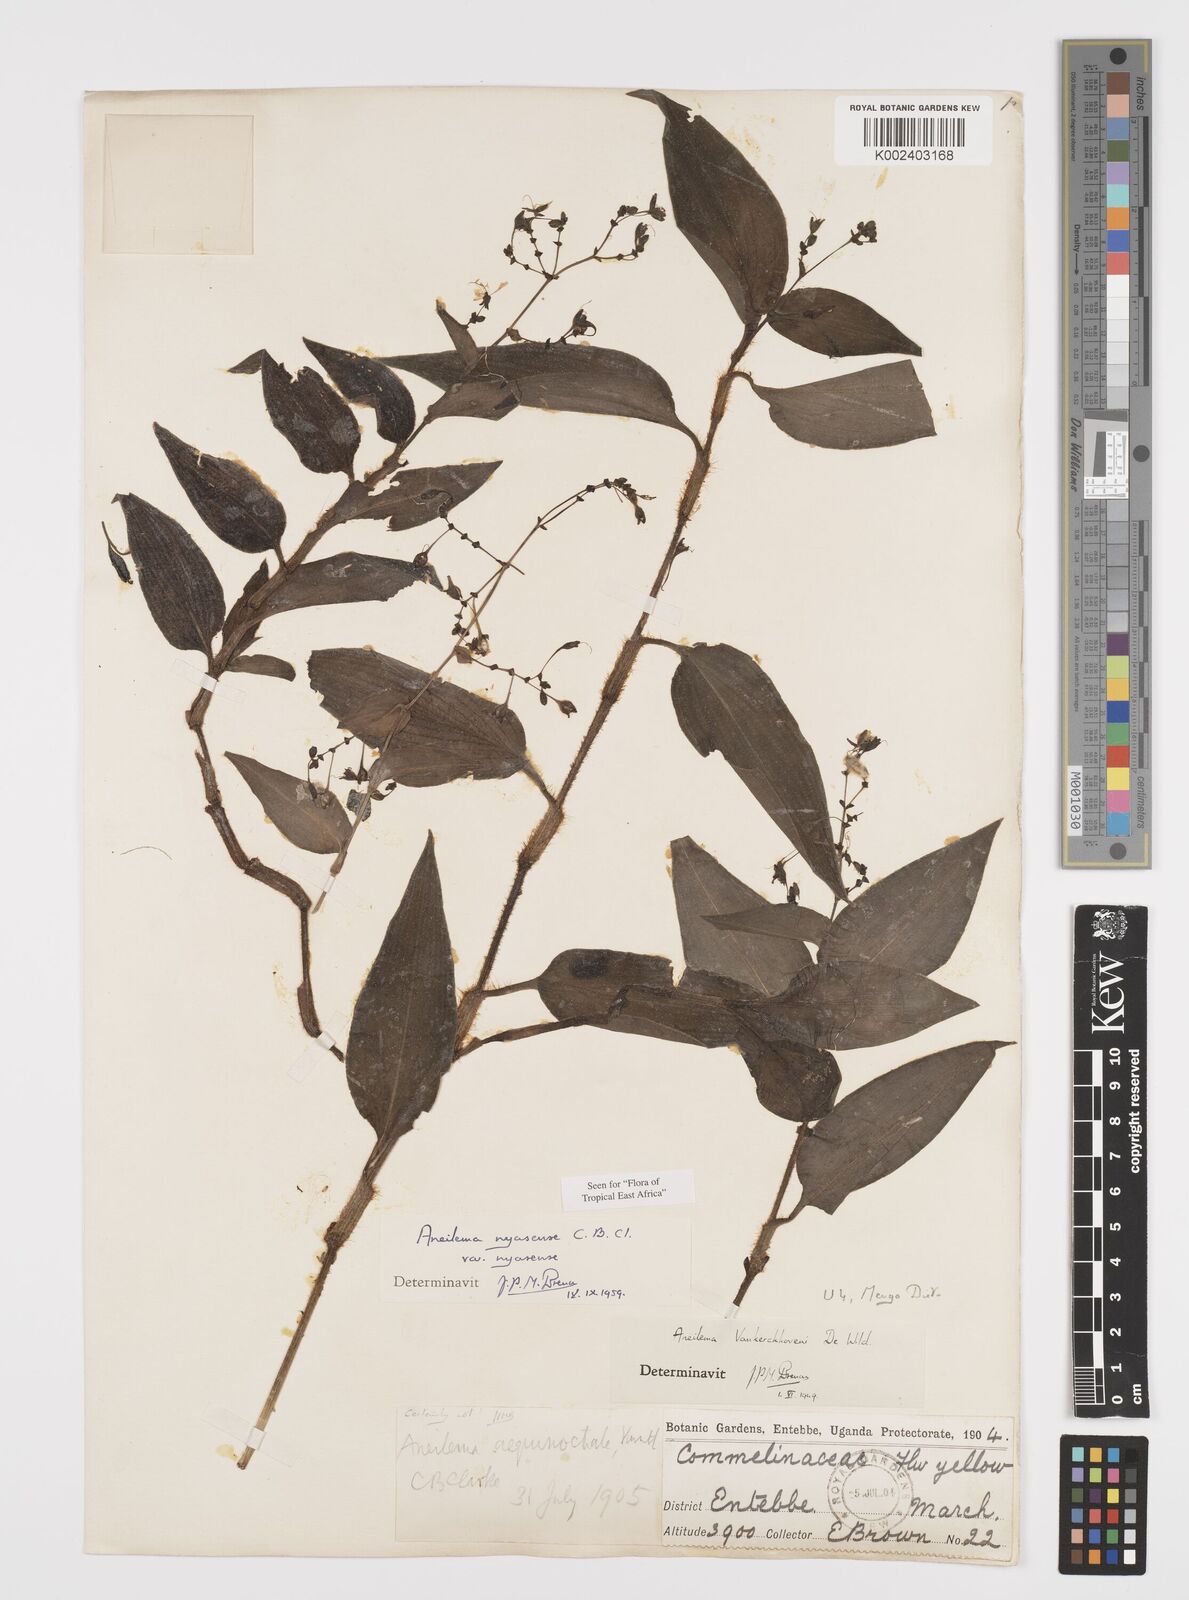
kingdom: Plantae
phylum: Tracheophyta
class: Liliopsida
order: Commelinales
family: Commelinaceae
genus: Aneilema
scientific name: Aneilema nyasense
